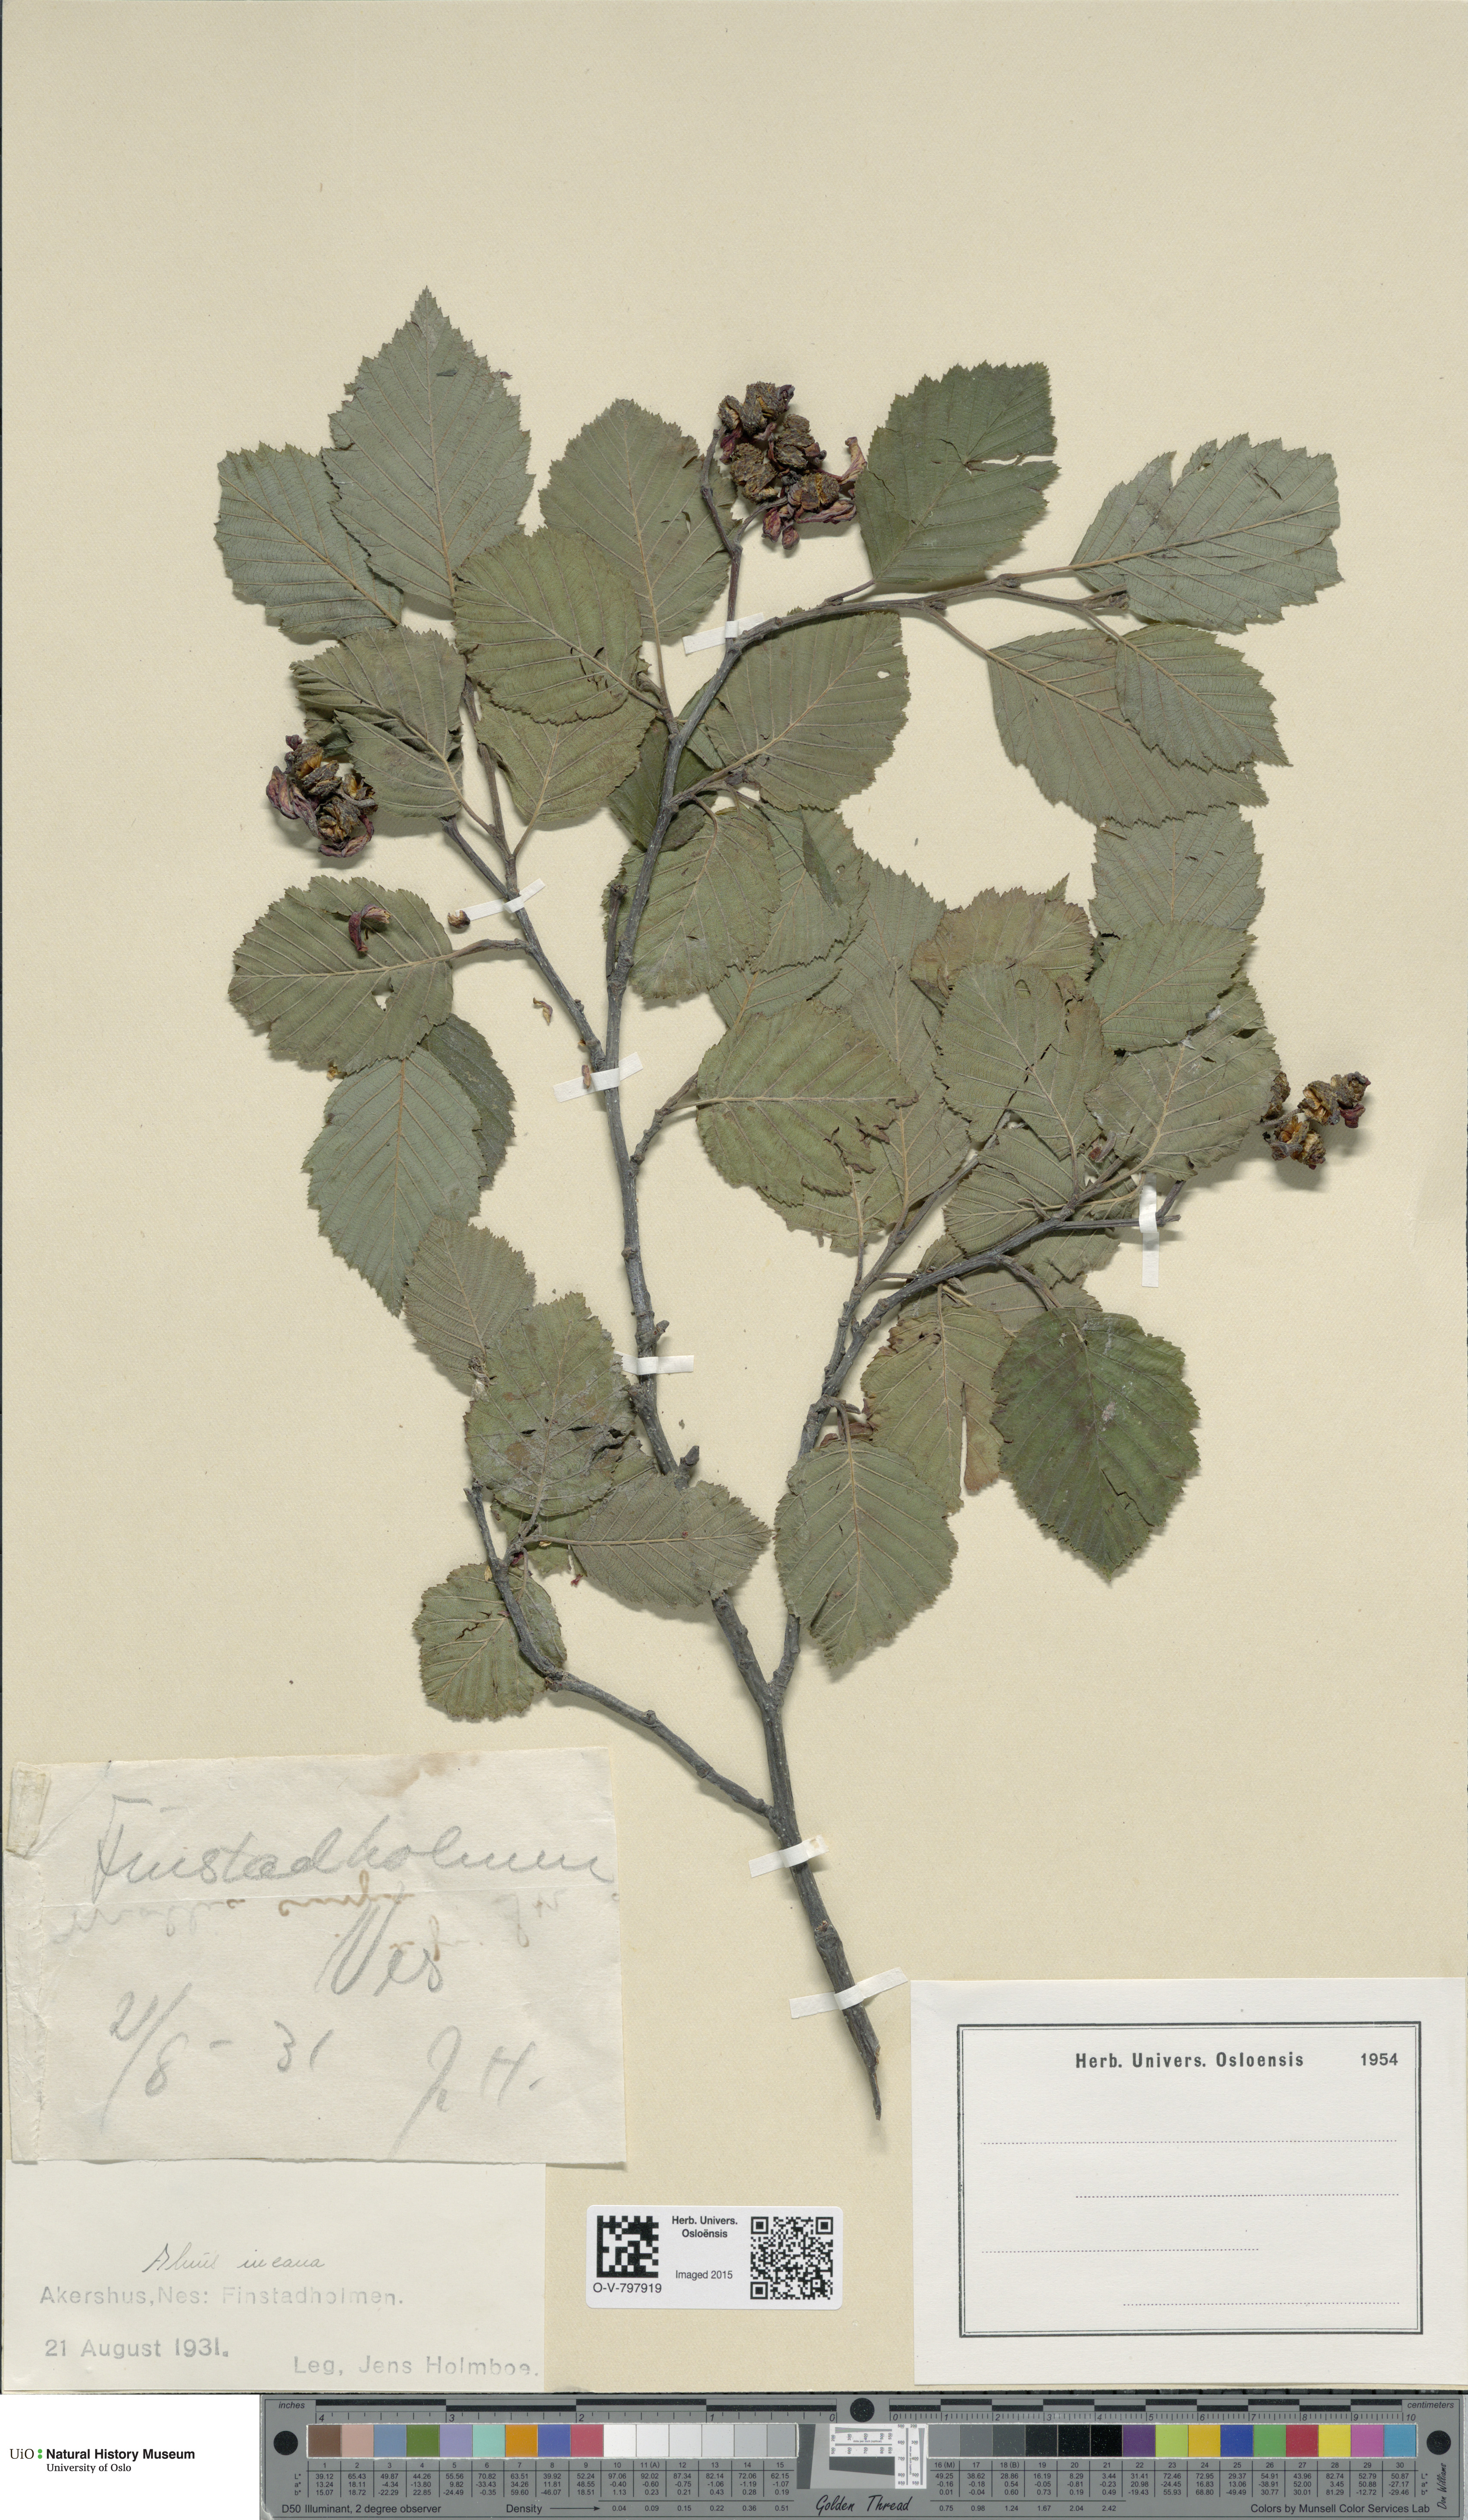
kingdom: Plantae
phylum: Tracheophyta
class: Magnoliopsida
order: Fagales
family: Betulaceae
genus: Alnus
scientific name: Alnus incana
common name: Grey alder
